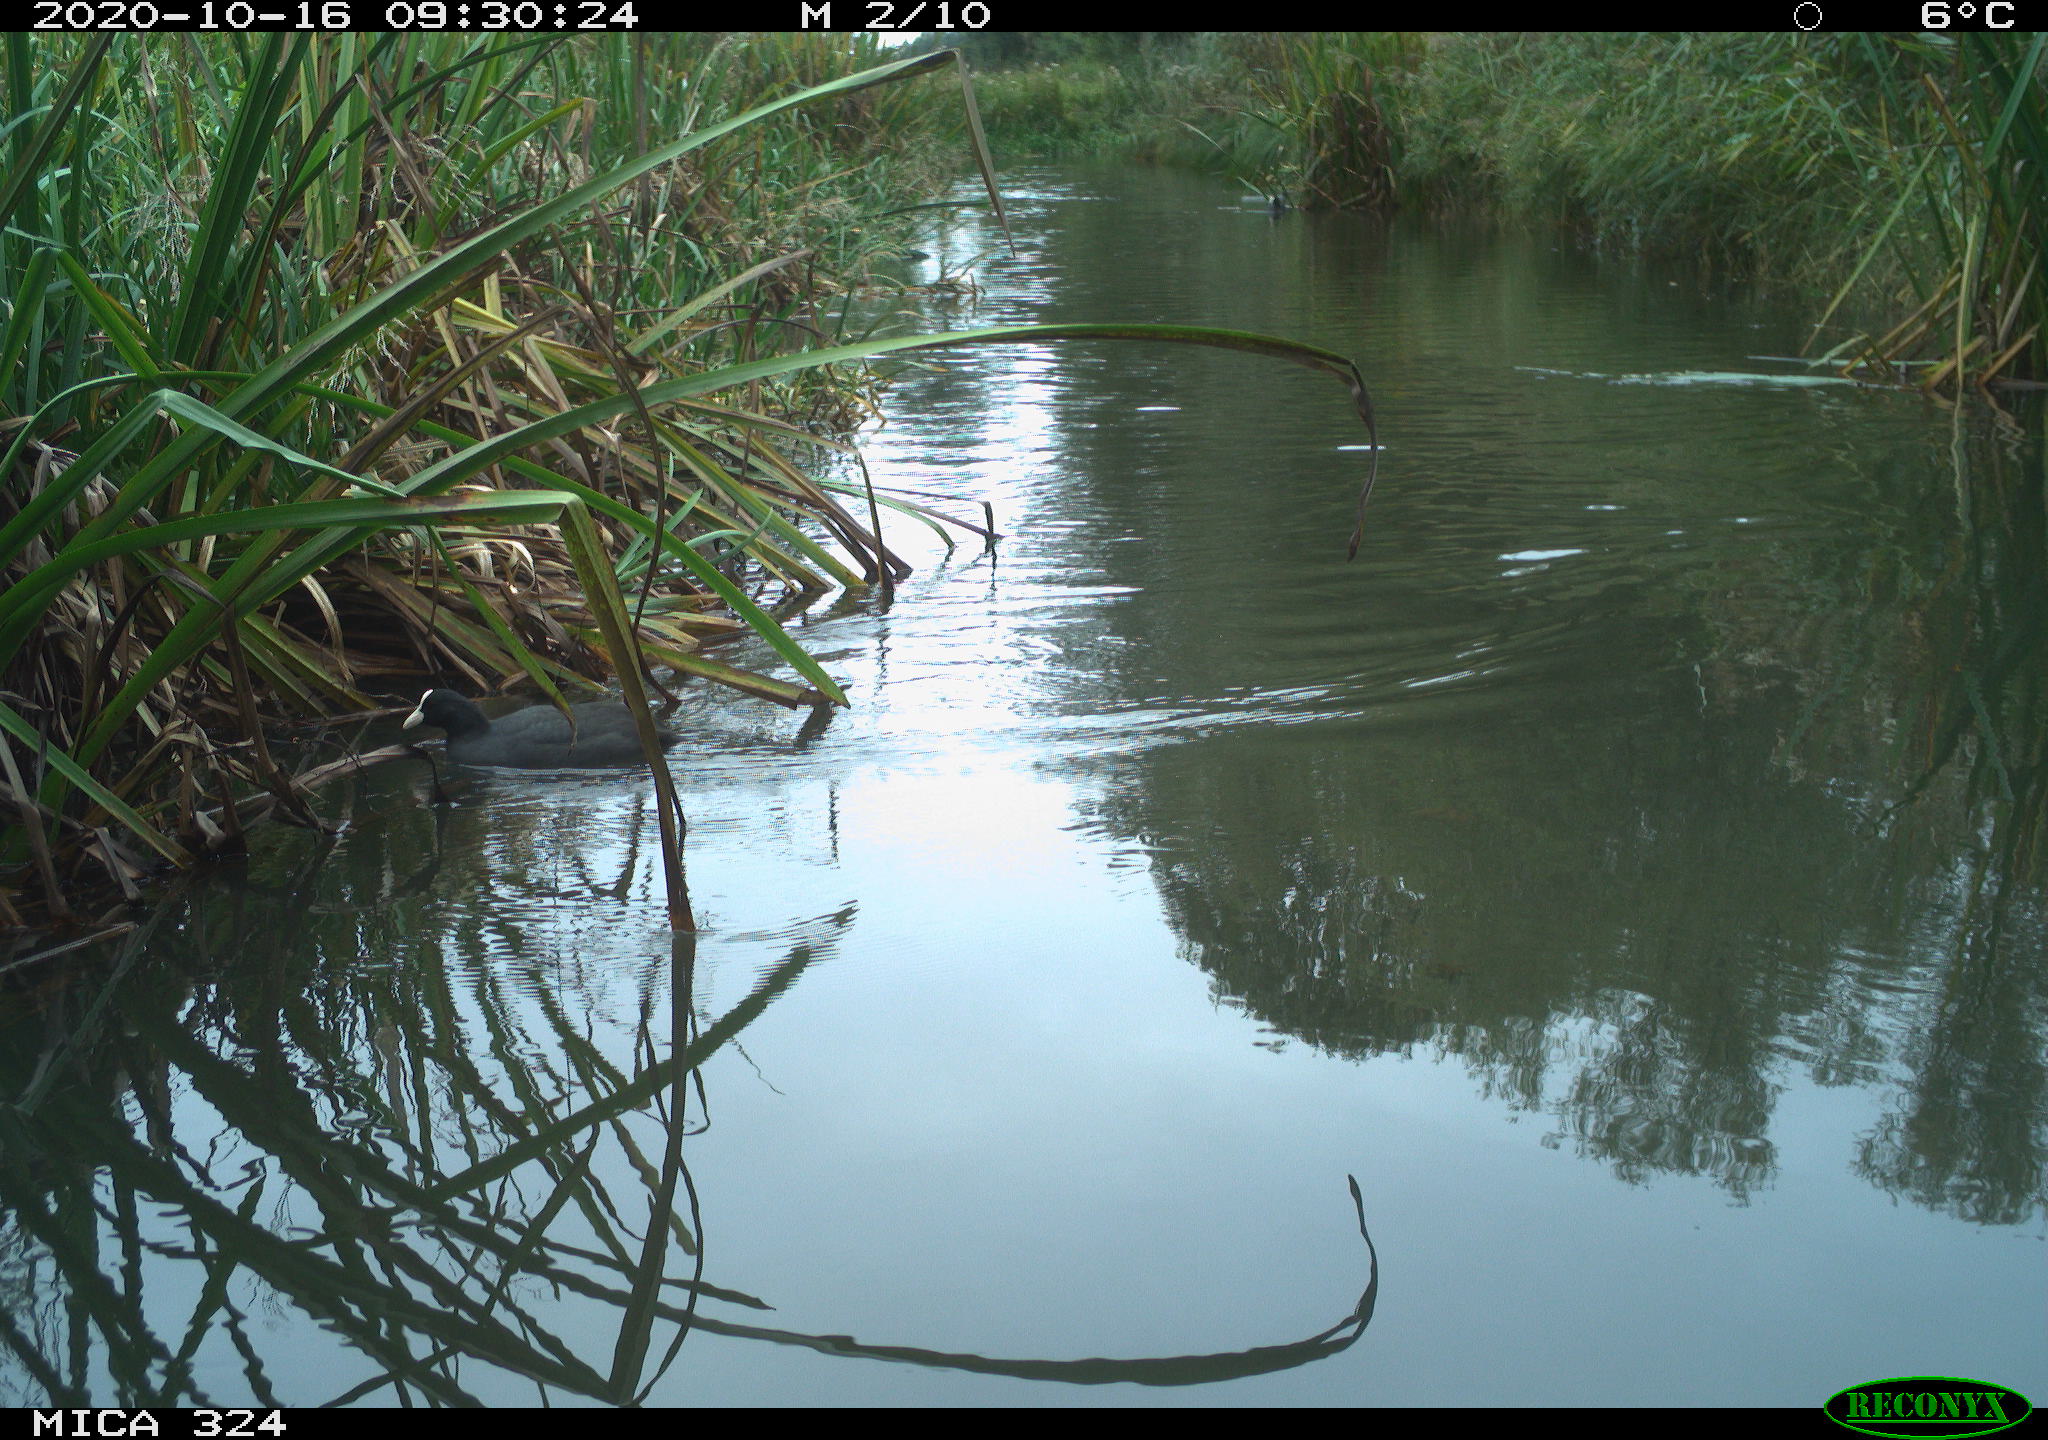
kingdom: Animalia
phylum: Chordata
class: Aves
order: Gruiformes
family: Rallidae
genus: Fulica
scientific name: Fulica atra
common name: Eurasian coot
